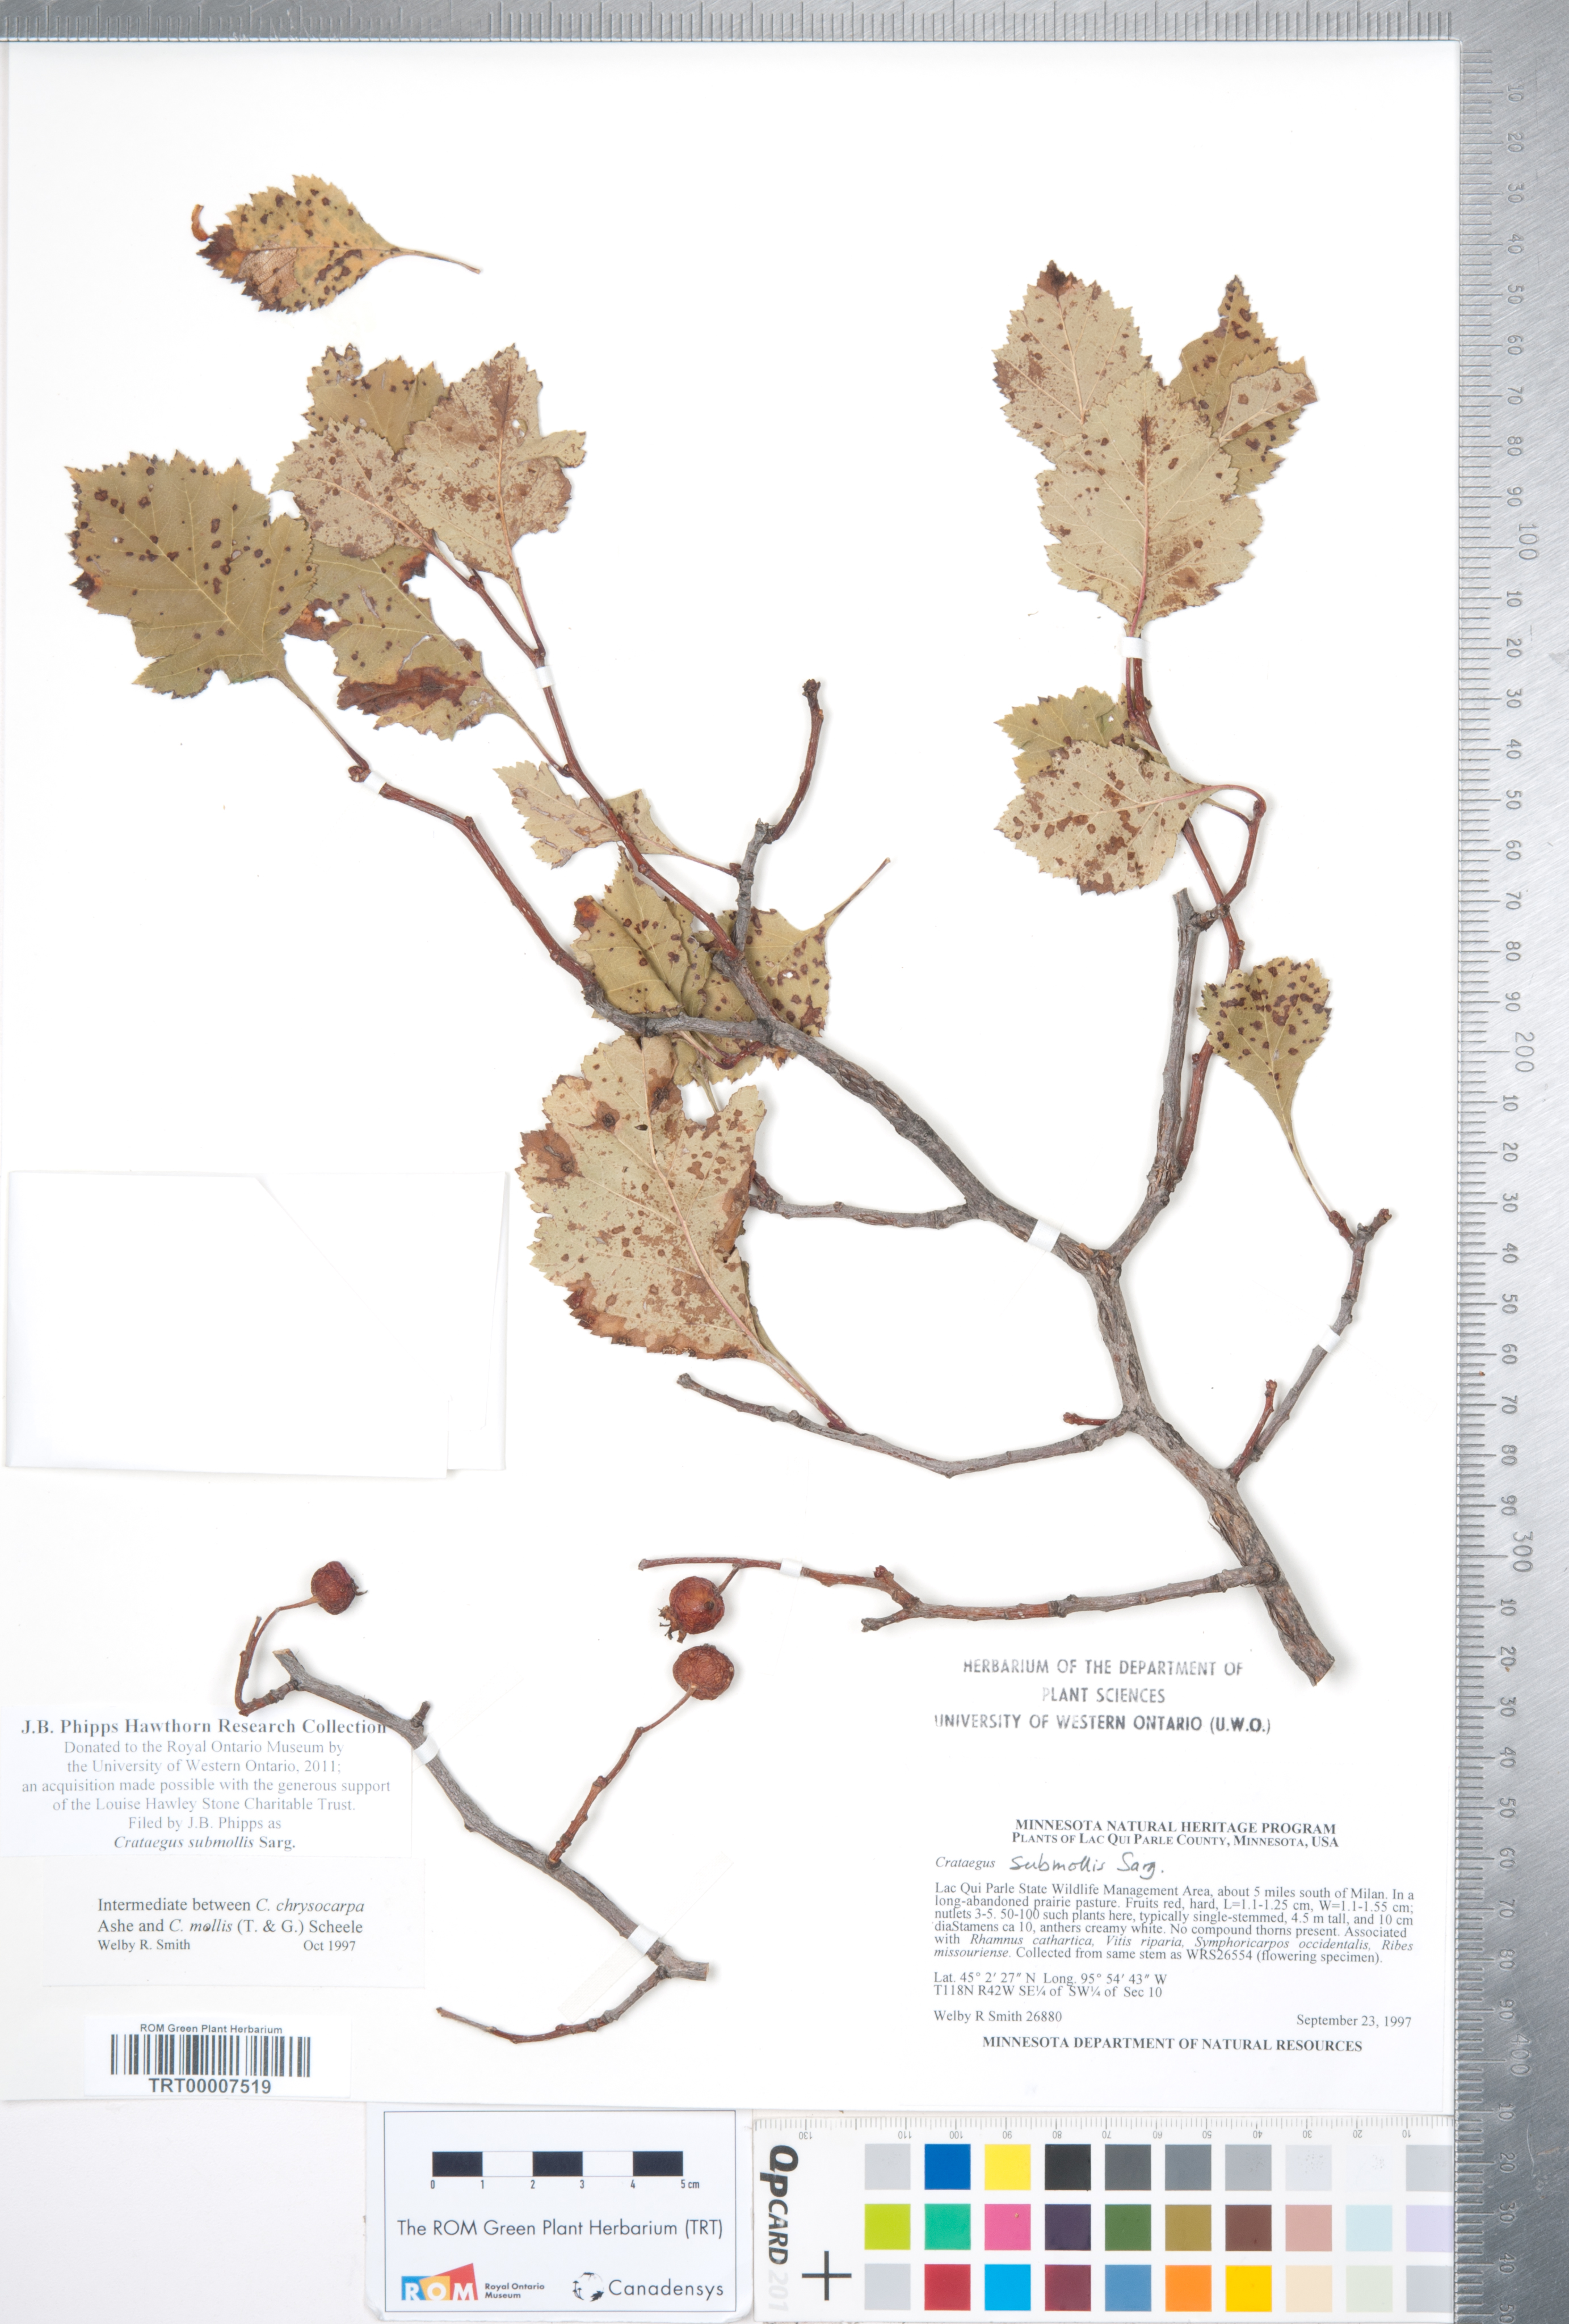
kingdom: Plantae
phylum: Tracheophyta
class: Magnoliopsida
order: Rosales
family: Rosaceae
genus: Crataegus
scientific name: Crataegus submollis
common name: Hairy cockspurthorn
